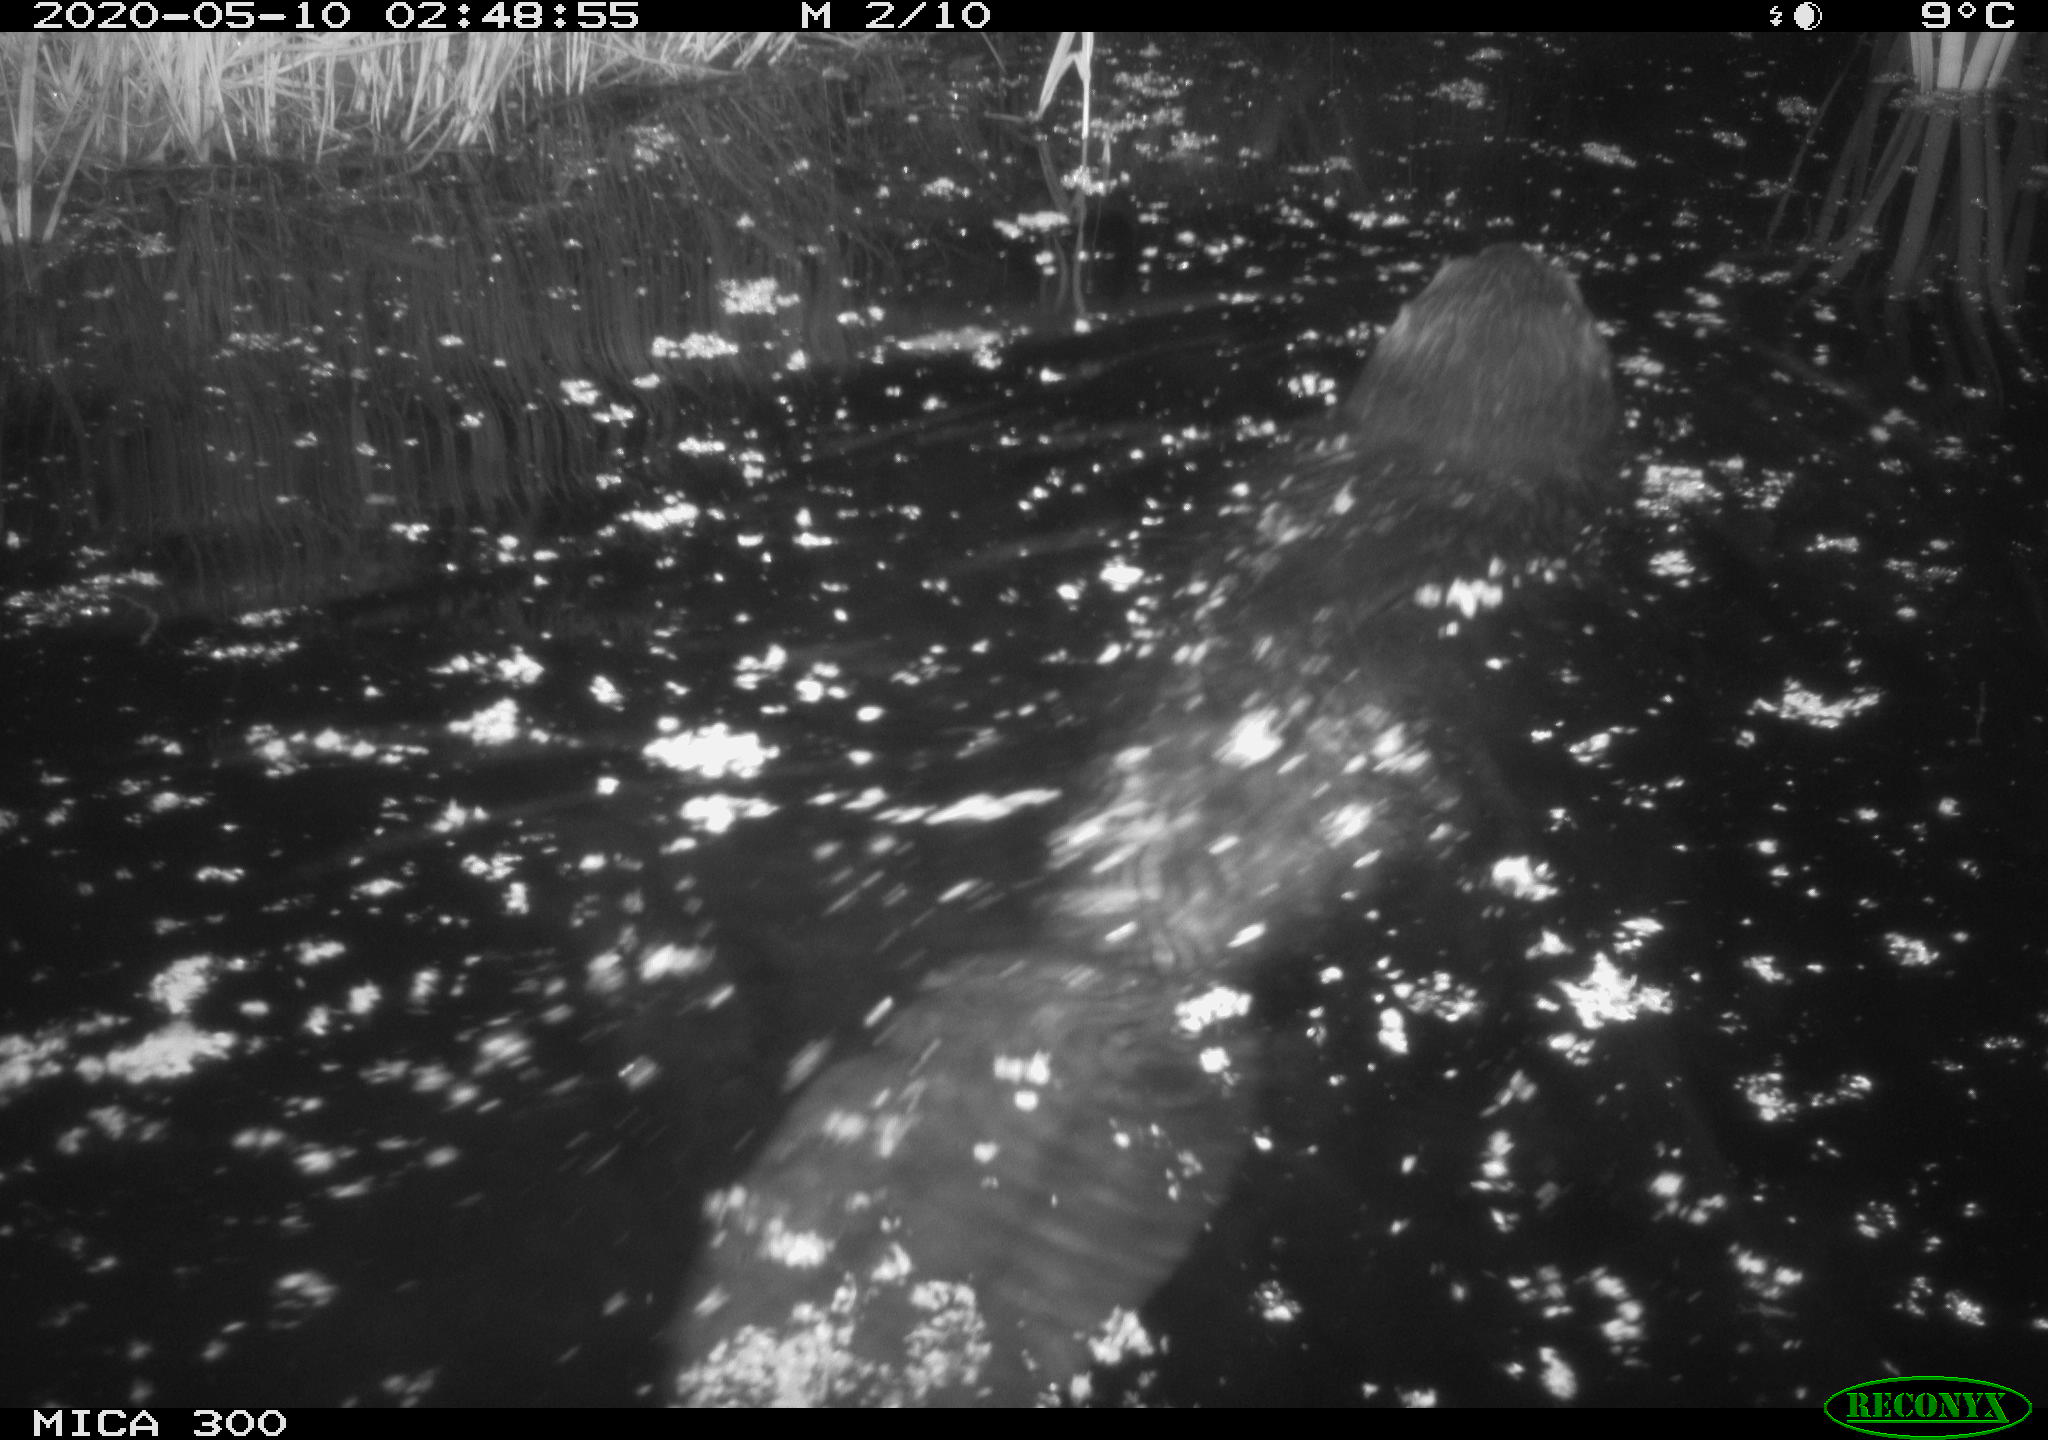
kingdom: Animalia
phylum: Chordata
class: Mammalia
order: Rodentia
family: Castoridae
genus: Castor
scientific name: Castor fiber
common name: Eurasian beaver
